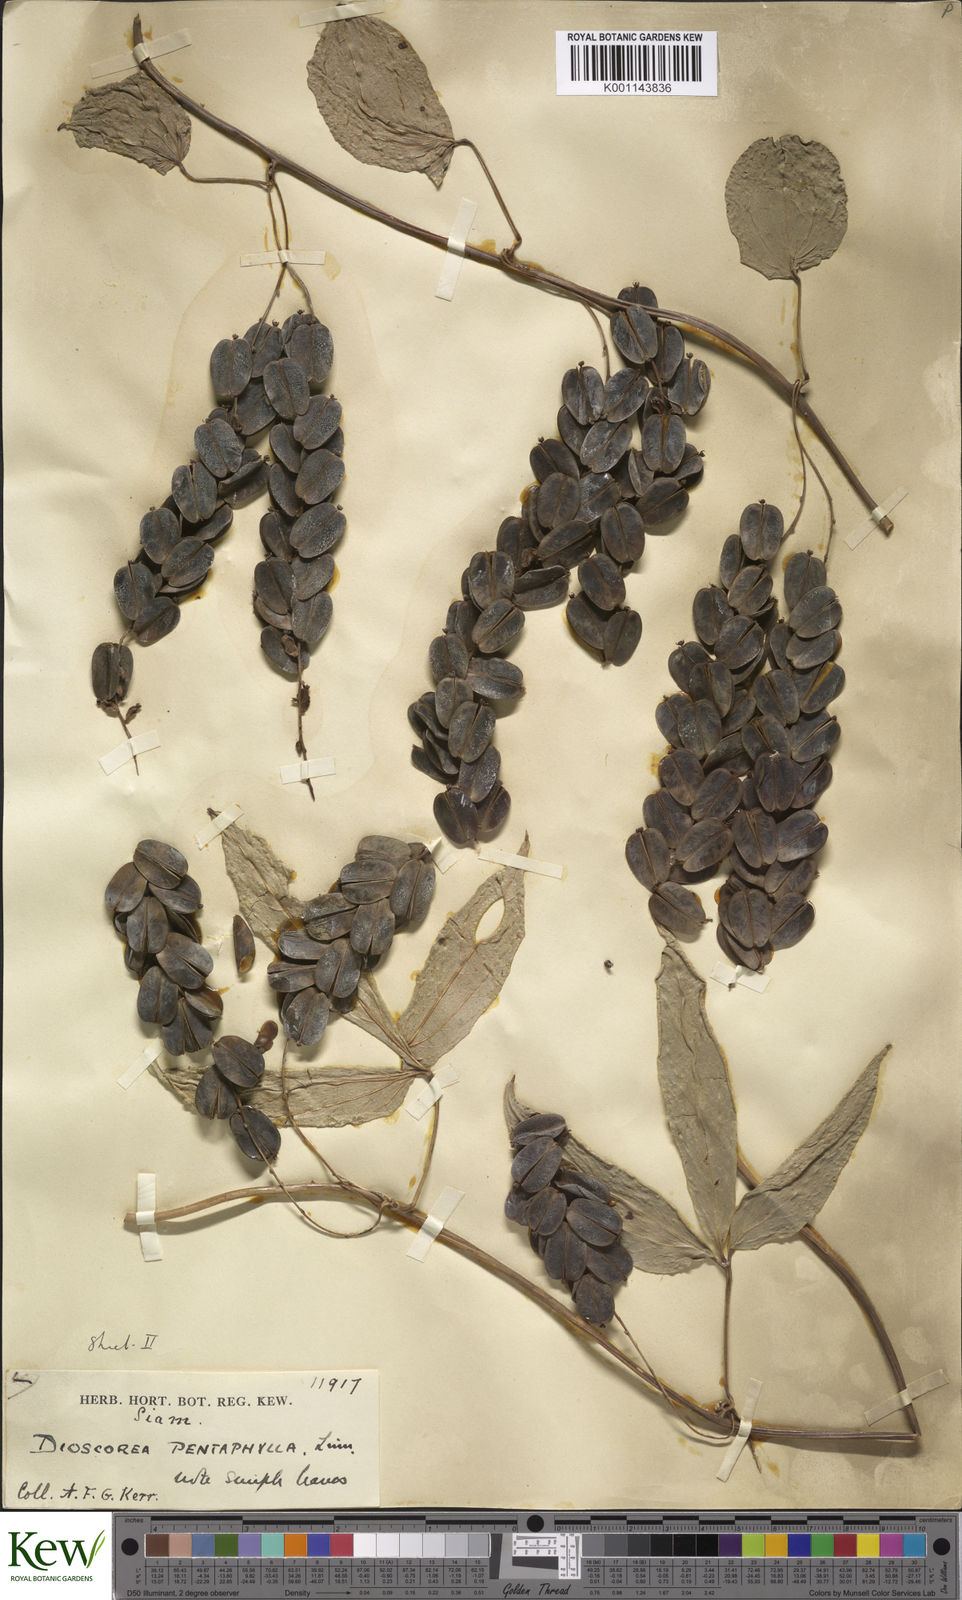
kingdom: Plantae
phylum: Tracheophyta
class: Liliopsida
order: Dioscoreales
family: Dioscoreaceae
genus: Dioscorea
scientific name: Dioscorea pentaphylla
